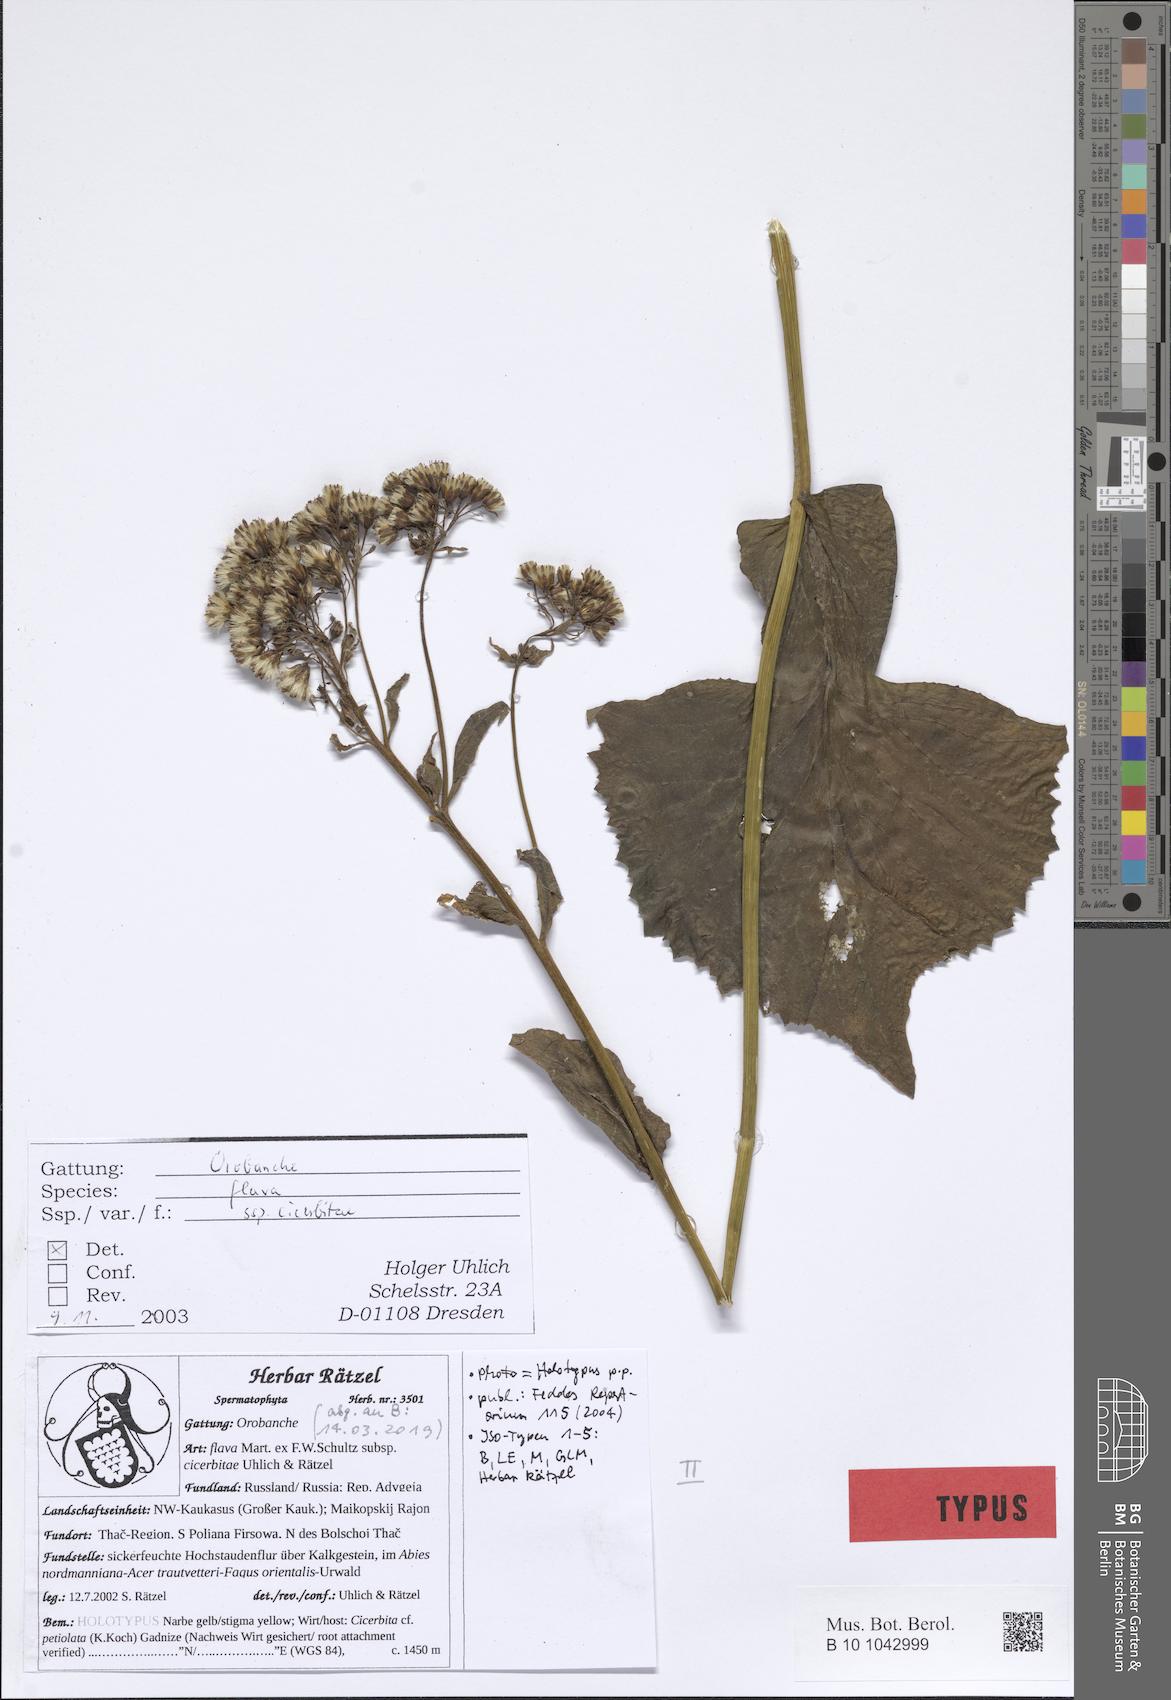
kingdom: Plantae
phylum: Tracheophyta
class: Magnoliopsida
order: Lamiales
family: Orobanchaceae
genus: Orobanche
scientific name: Orobanche flava
